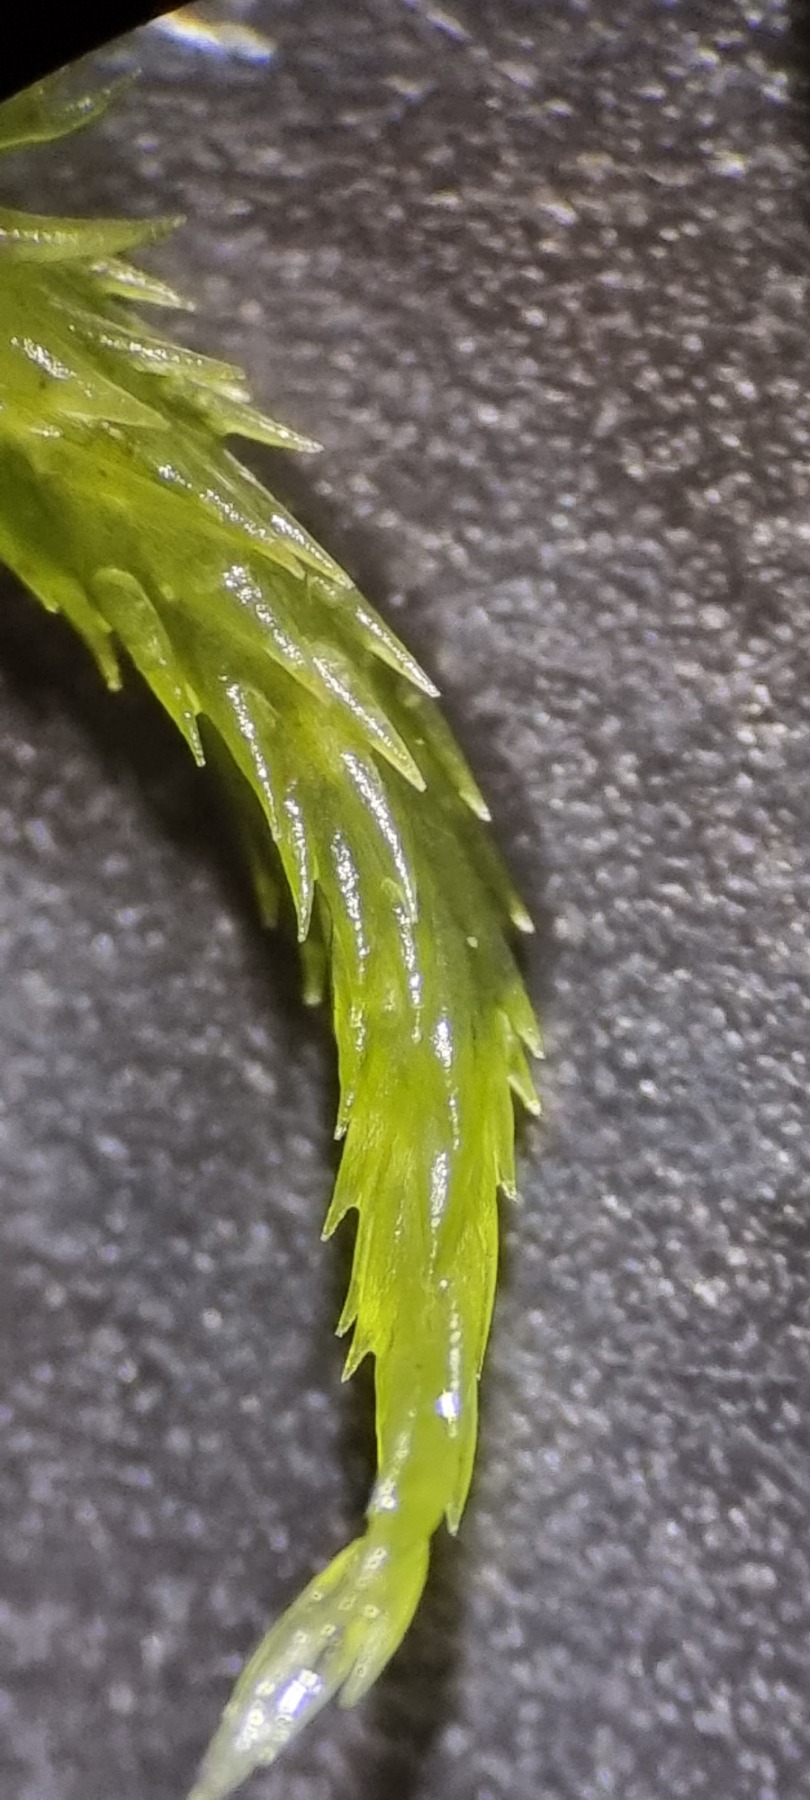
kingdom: Plantae
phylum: Bryophyta
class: Sphagnopsida
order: Sphagnales
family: Sphagnaceae
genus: Sphagnum
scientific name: Sphagnum fallax
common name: Brodspids-tørvemos
